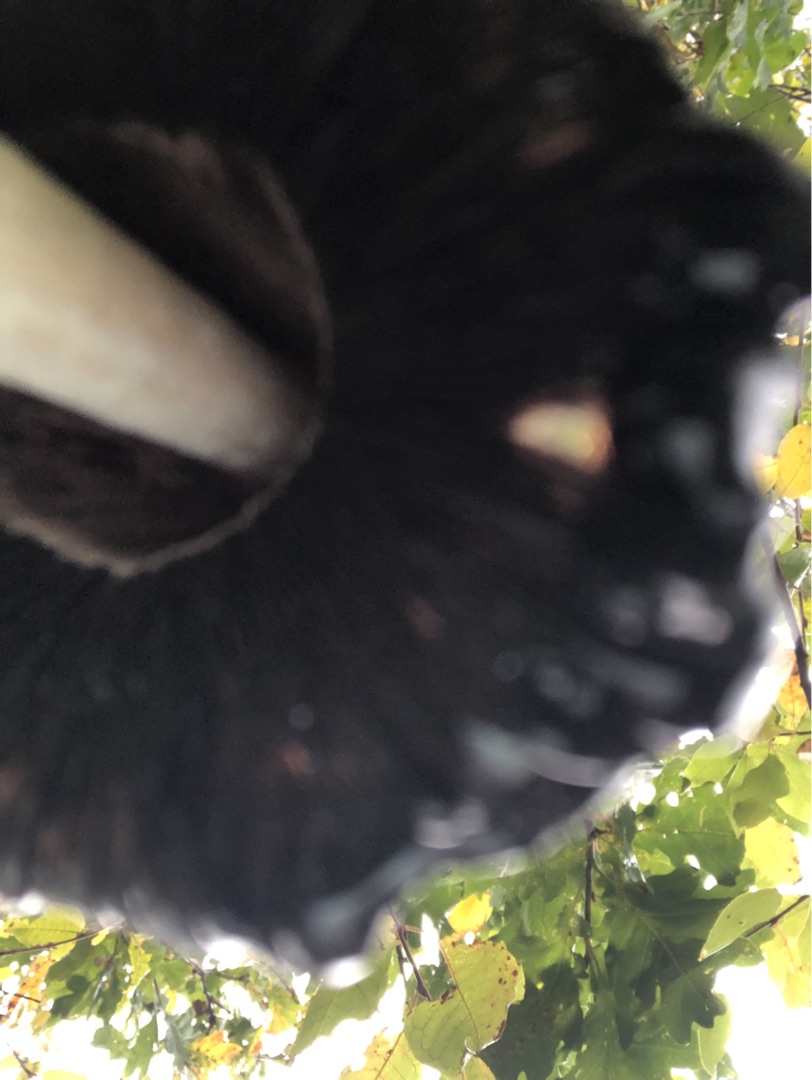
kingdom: Fungi
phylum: Basidiomycota
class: Agaricomycetes
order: Agaricales
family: Agaricaceae
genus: Coprinus
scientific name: Coprinus comatus
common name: Stor parykhat
